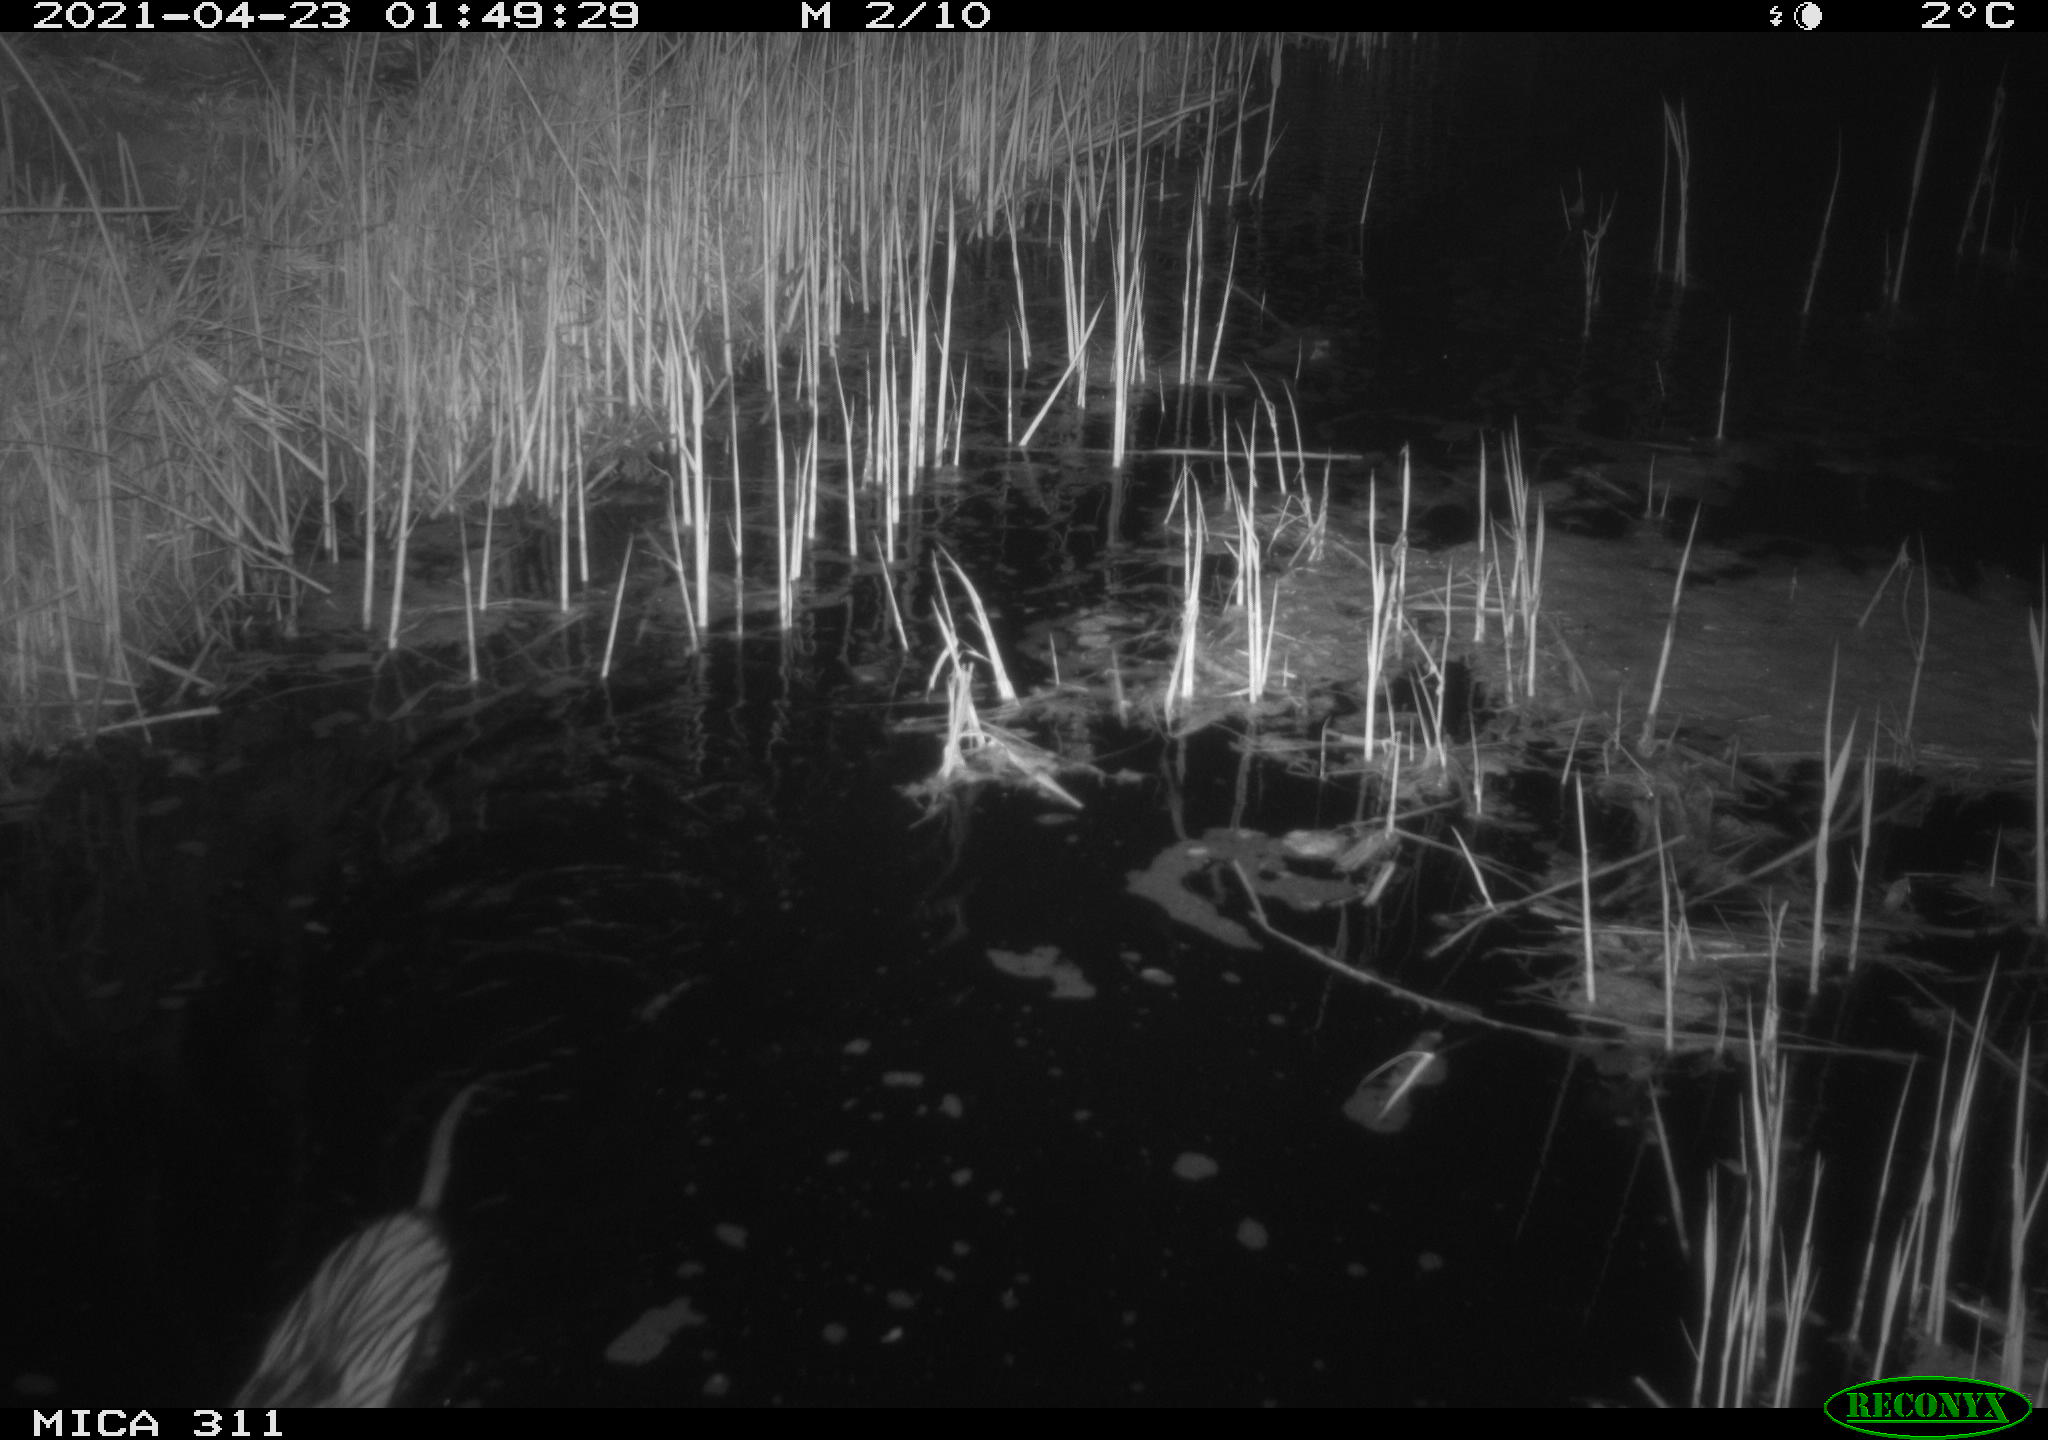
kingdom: Animalia
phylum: Chordata
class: Mammalia
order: Rodentia
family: Cricetidae
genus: Ondatra
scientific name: Ondatra zibethicus
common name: Muskrat
